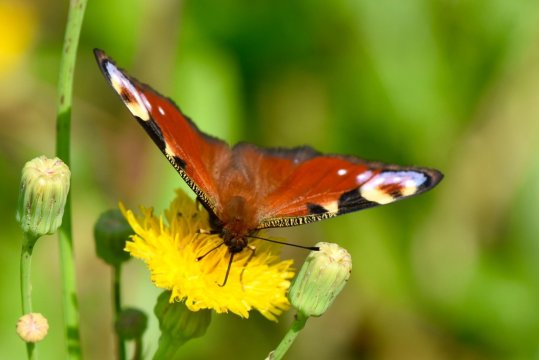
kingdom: Animalia
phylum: Arthropoda
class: Insecta
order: Lepidoptera
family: Nymphalidae
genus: Aglais
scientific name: Aglais io
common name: European Peacock
